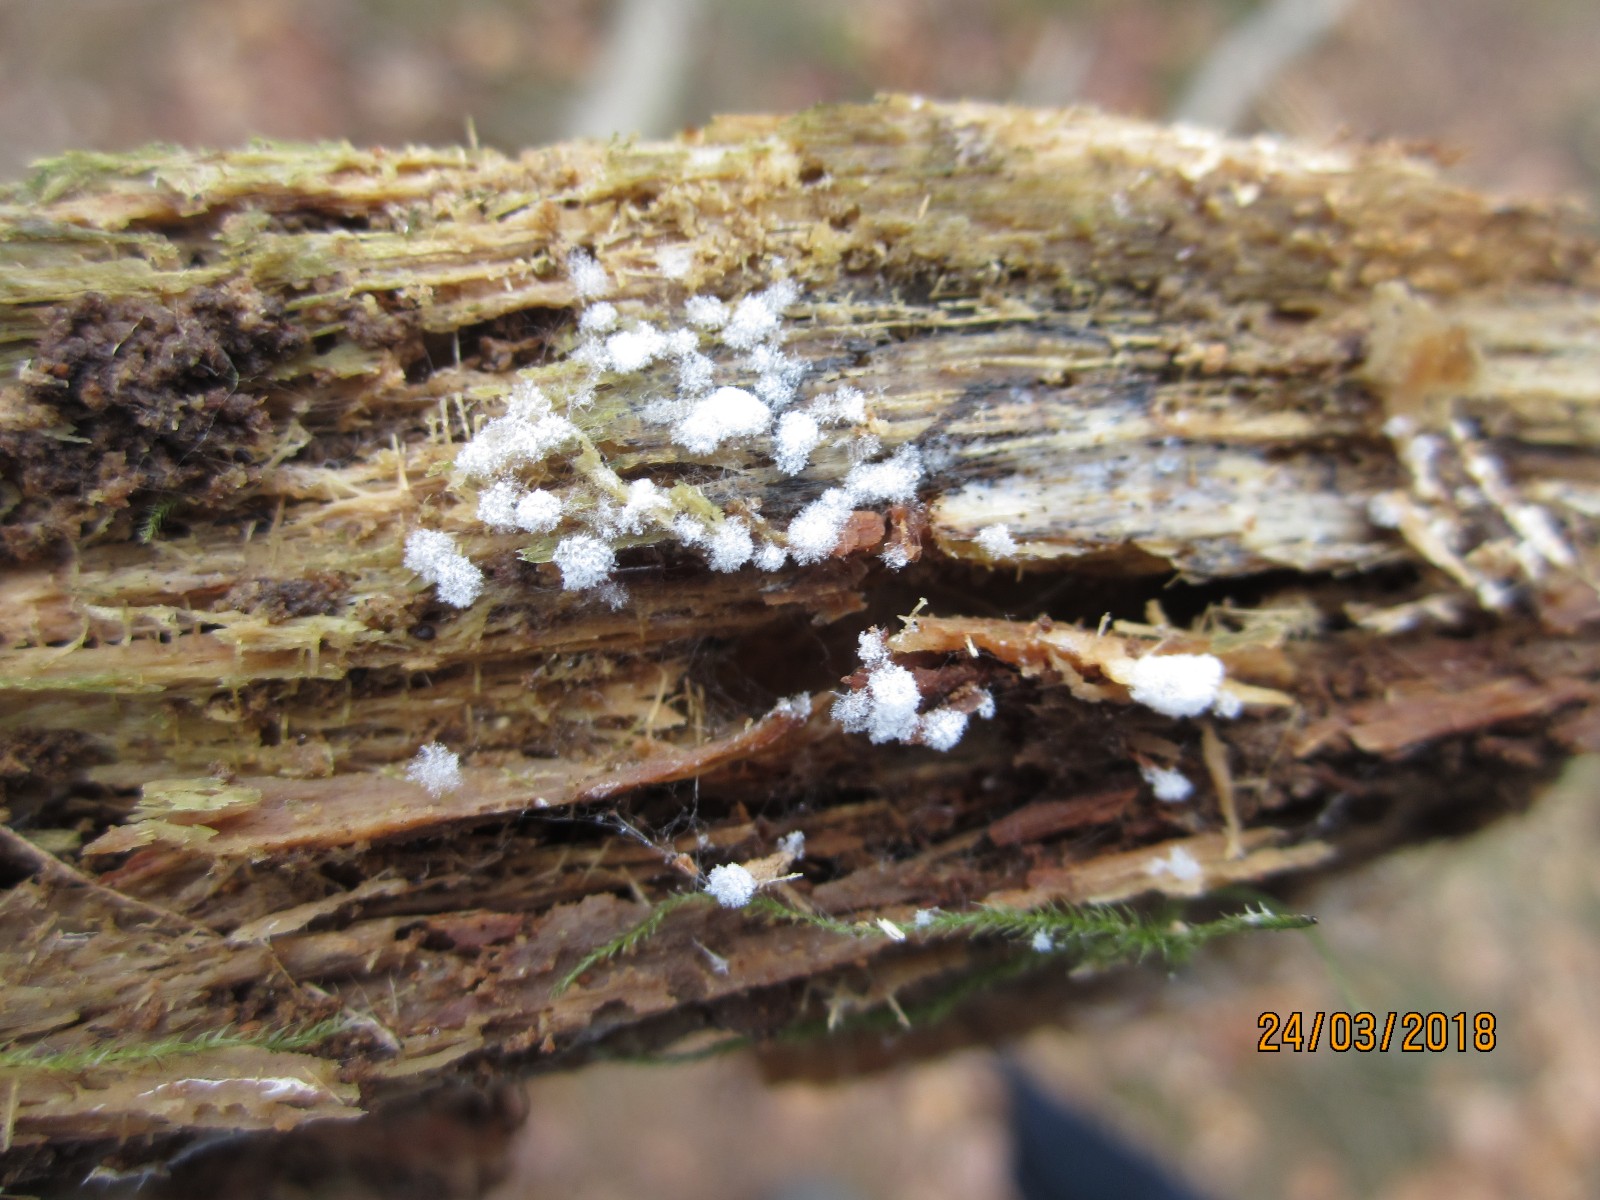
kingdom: Fungi
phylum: Ascomycota
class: Sordariomycetes
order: Hypocreales
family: Hypocreaceae
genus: Hypomyces
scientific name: Hypomyces aurantius
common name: almindelig snylteskorpe
